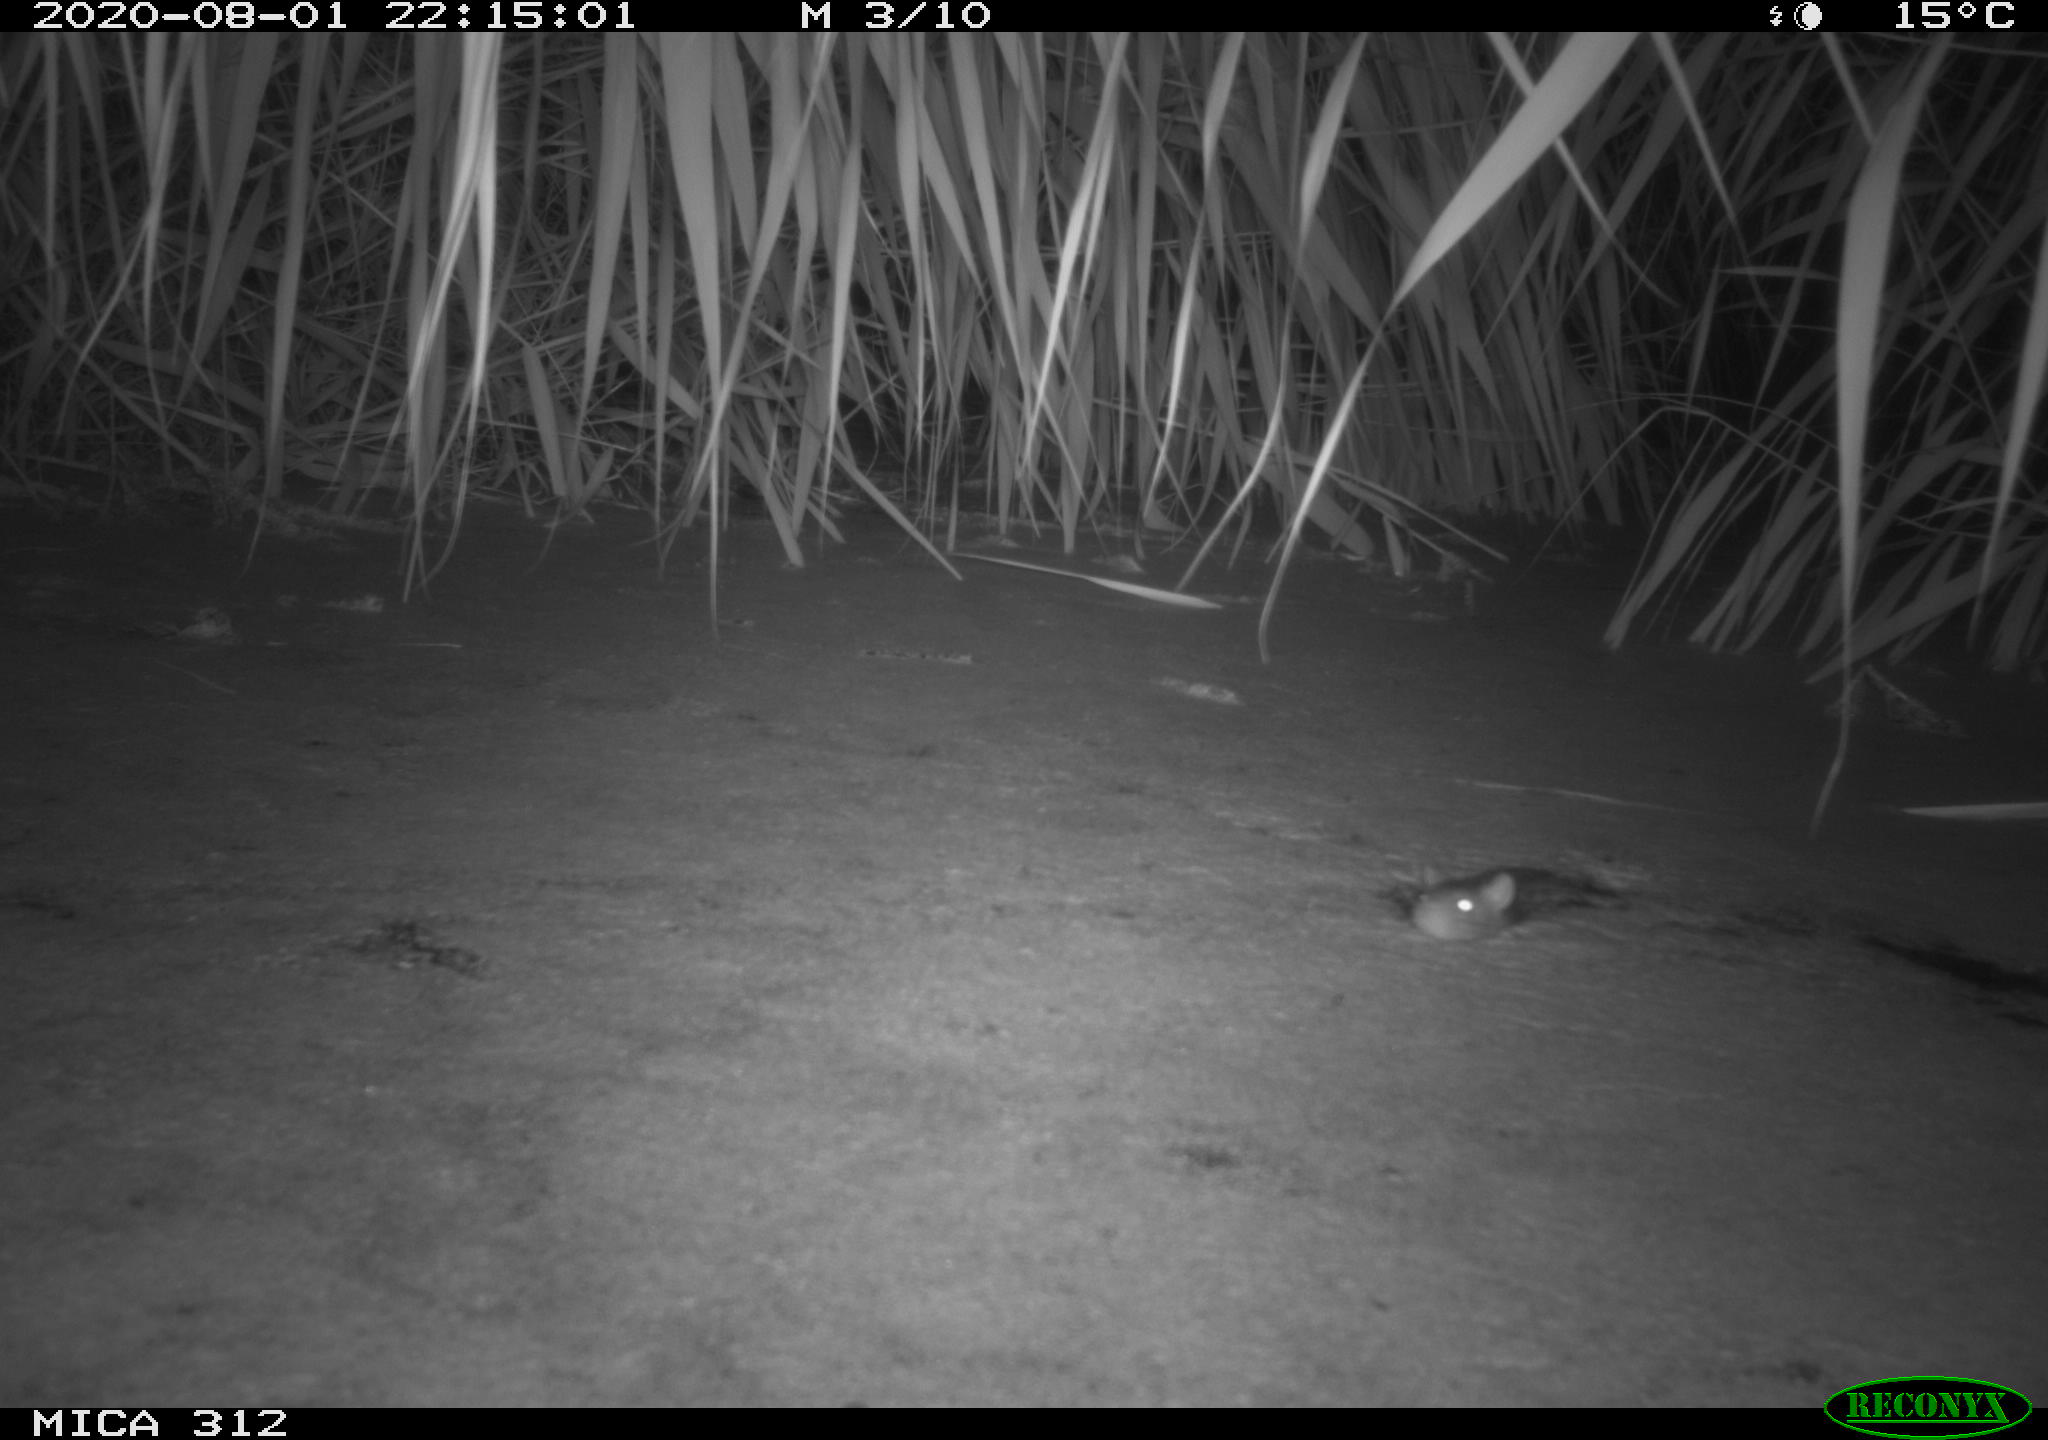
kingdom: Animalia
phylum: Chordata
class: Mammalia
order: Rodentia
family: Muridae
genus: Rattus
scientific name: Rattus norvegicus
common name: Brown rat
